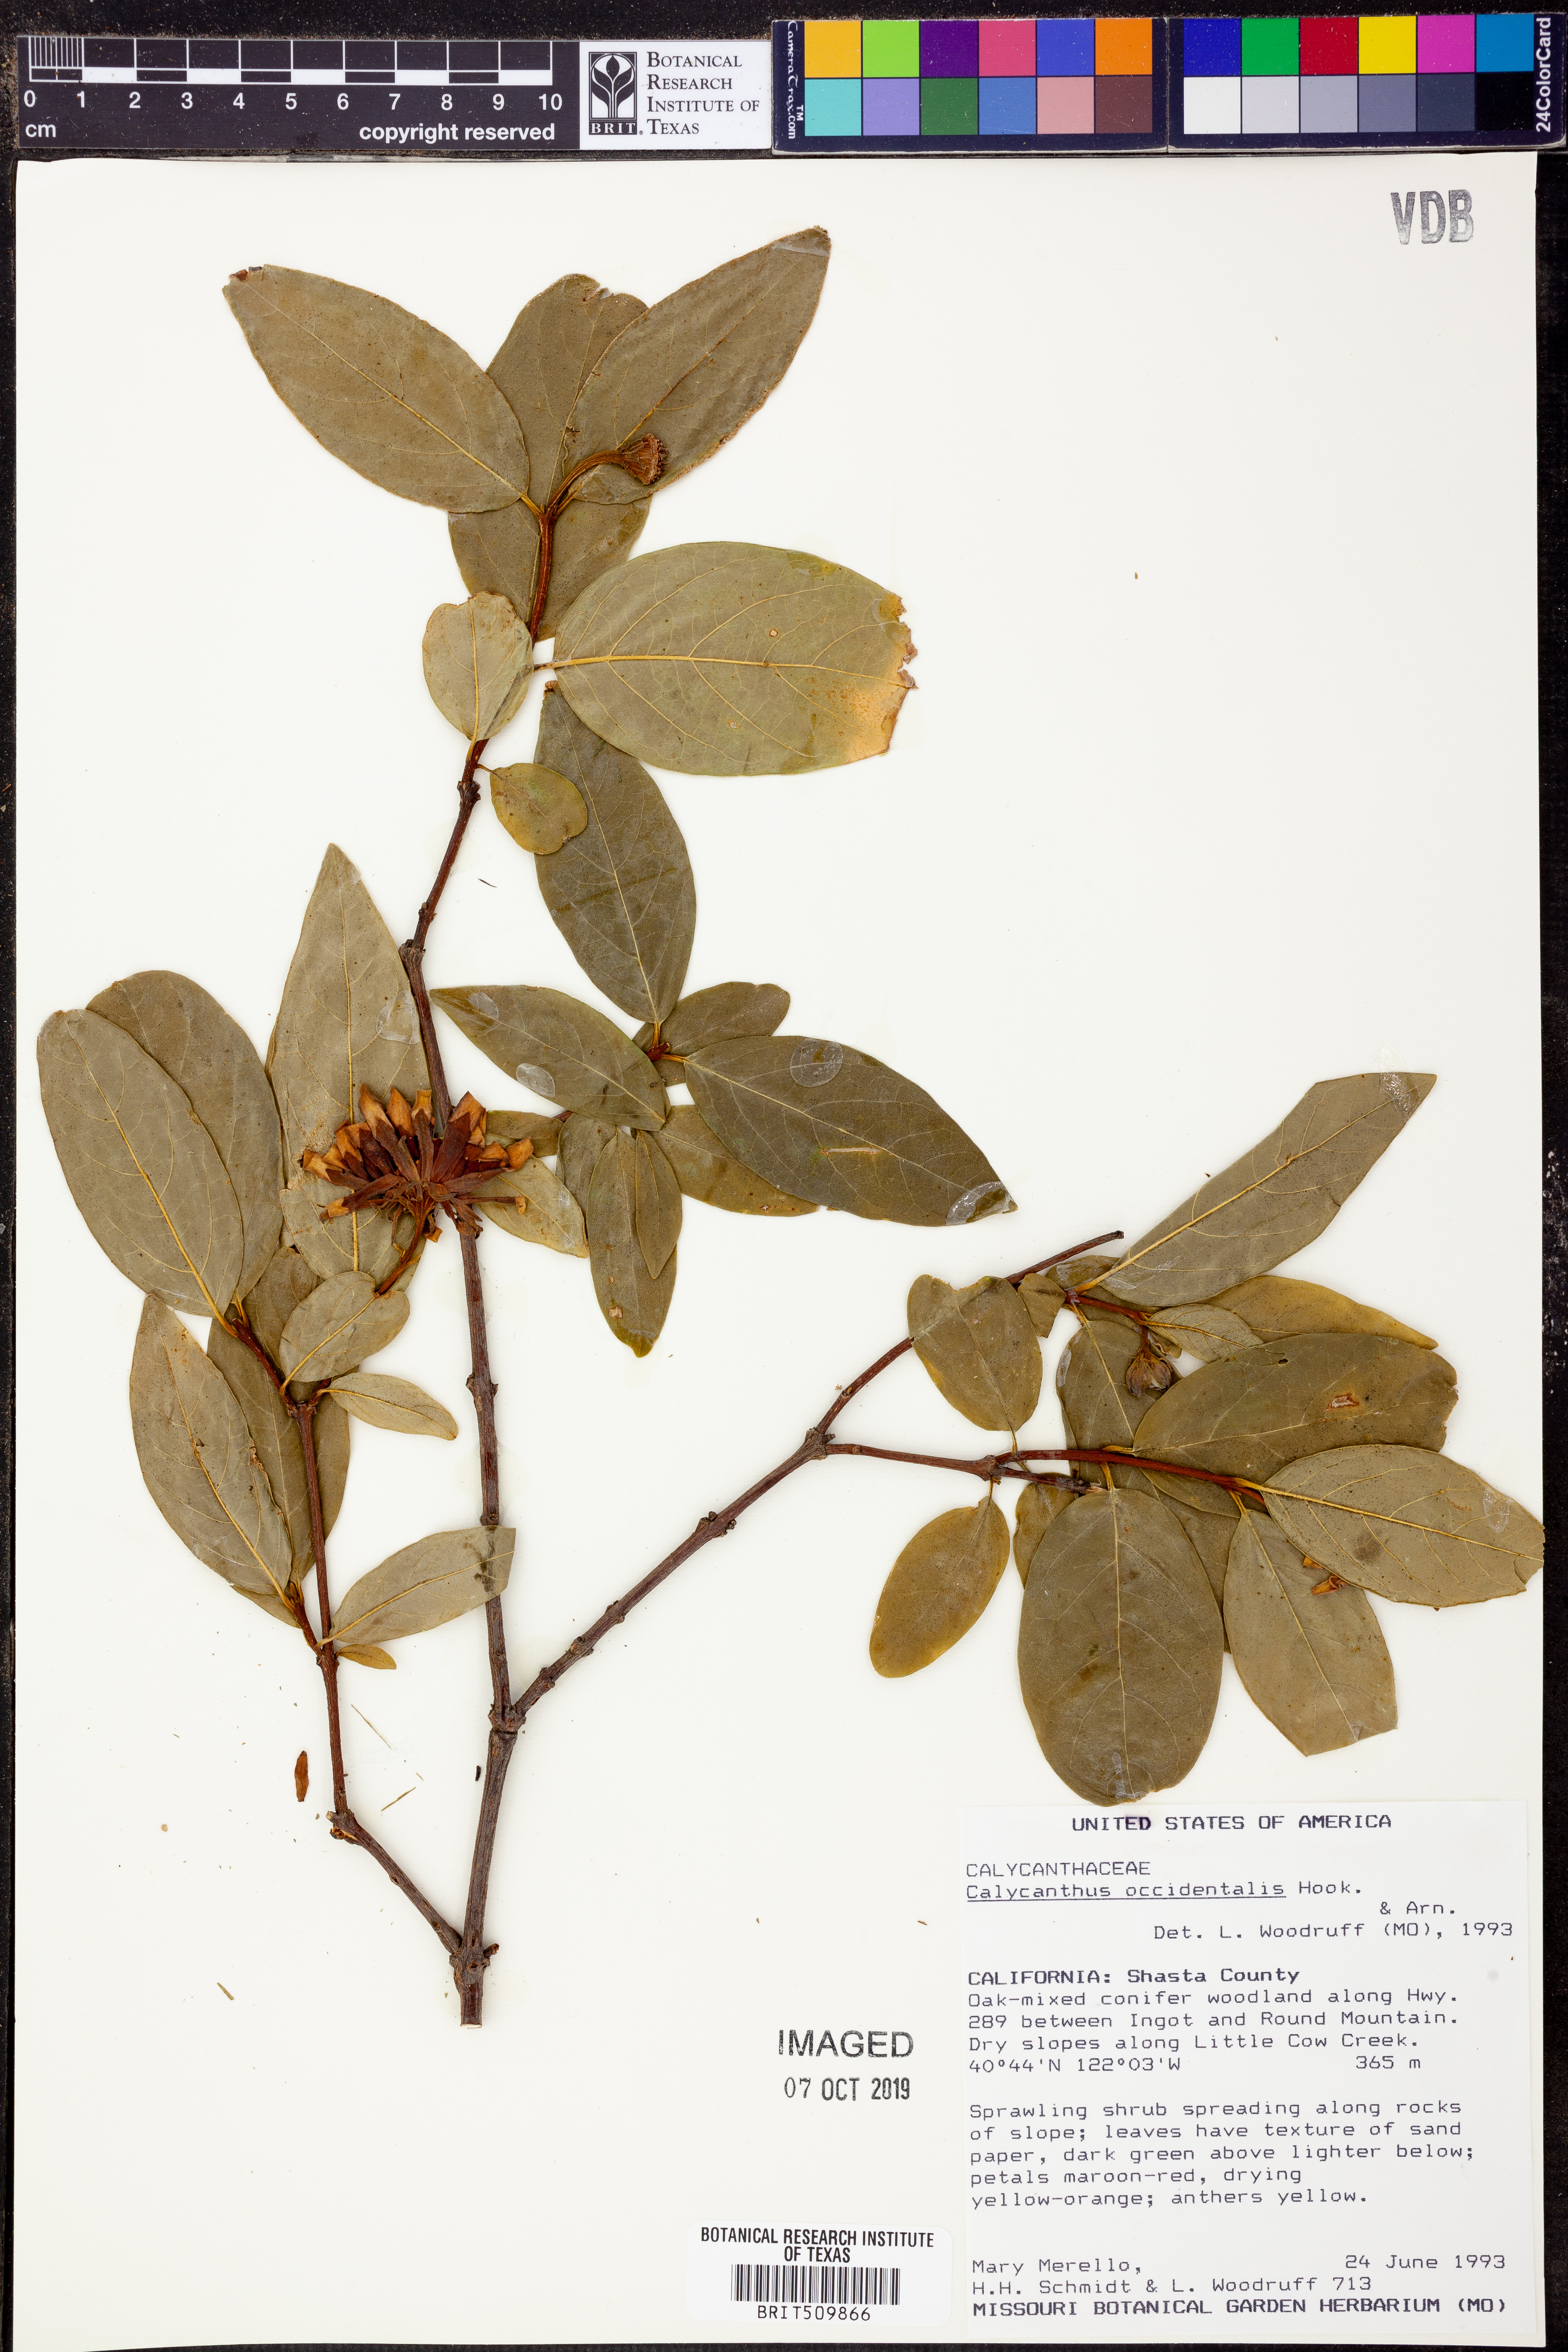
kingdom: Plantae
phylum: Tracheophyta
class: Magnoliopsida
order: Laurales
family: Calycanthaceae
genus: Calycanthus
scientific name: Calycanthus occidentalis
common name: California spicebush
